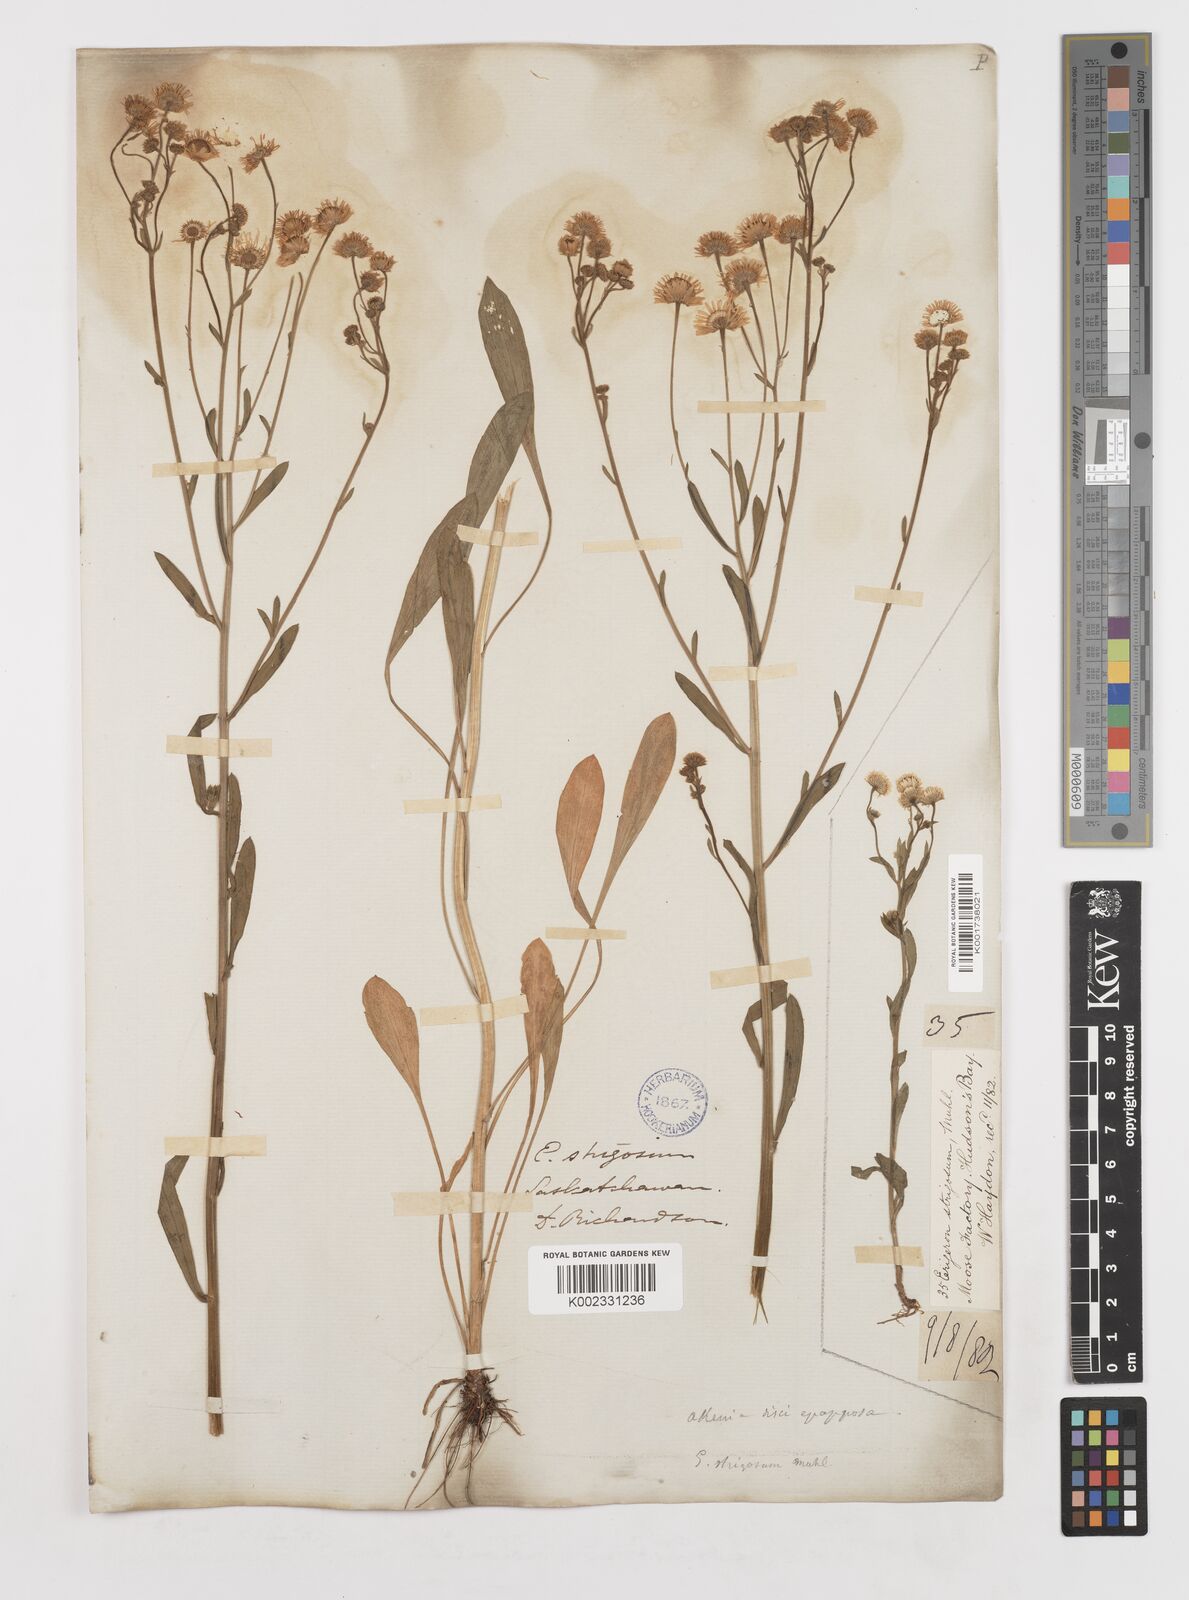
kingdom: Plantae
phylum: Tracheophyta
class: Magnoliopsida
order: Asterales
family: Asteraceae
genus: Erigeron
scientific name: Erigeron strigosus
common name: Common eastern fleabane
